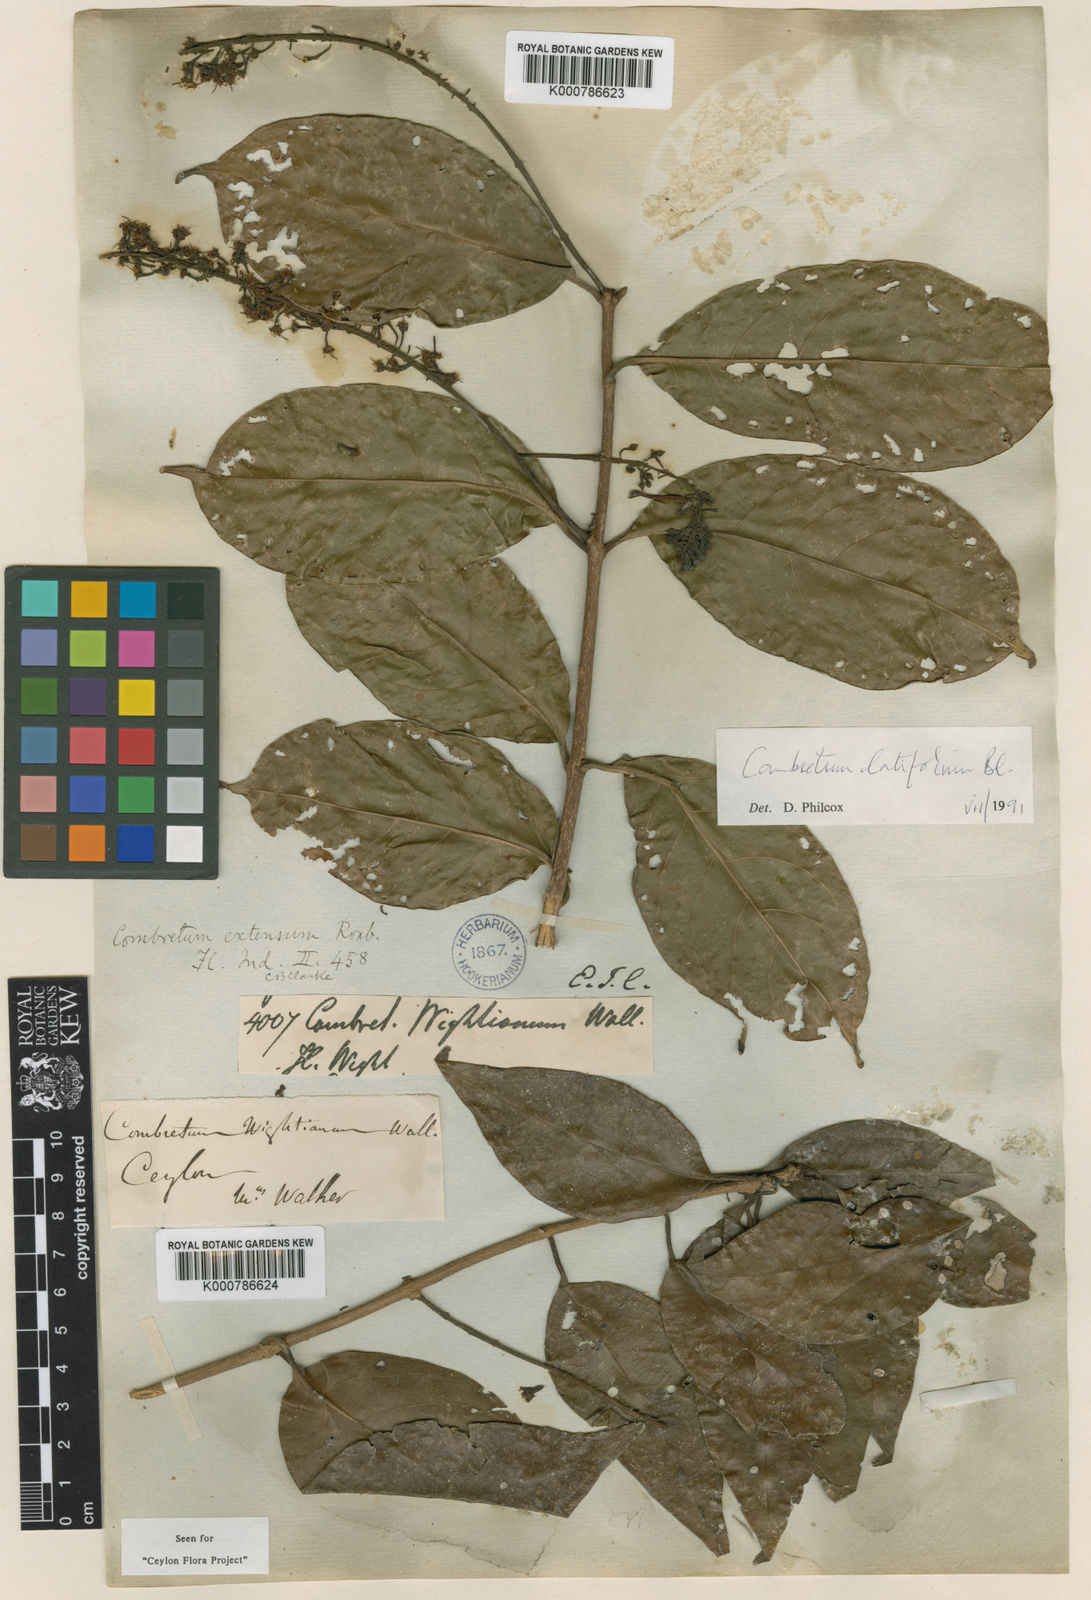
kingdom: Plantae
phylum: Tracheophyta
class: Magnoliopsida
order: Myrtales
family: Combretaceae
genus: Combretum
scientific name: Combretum latifolium
